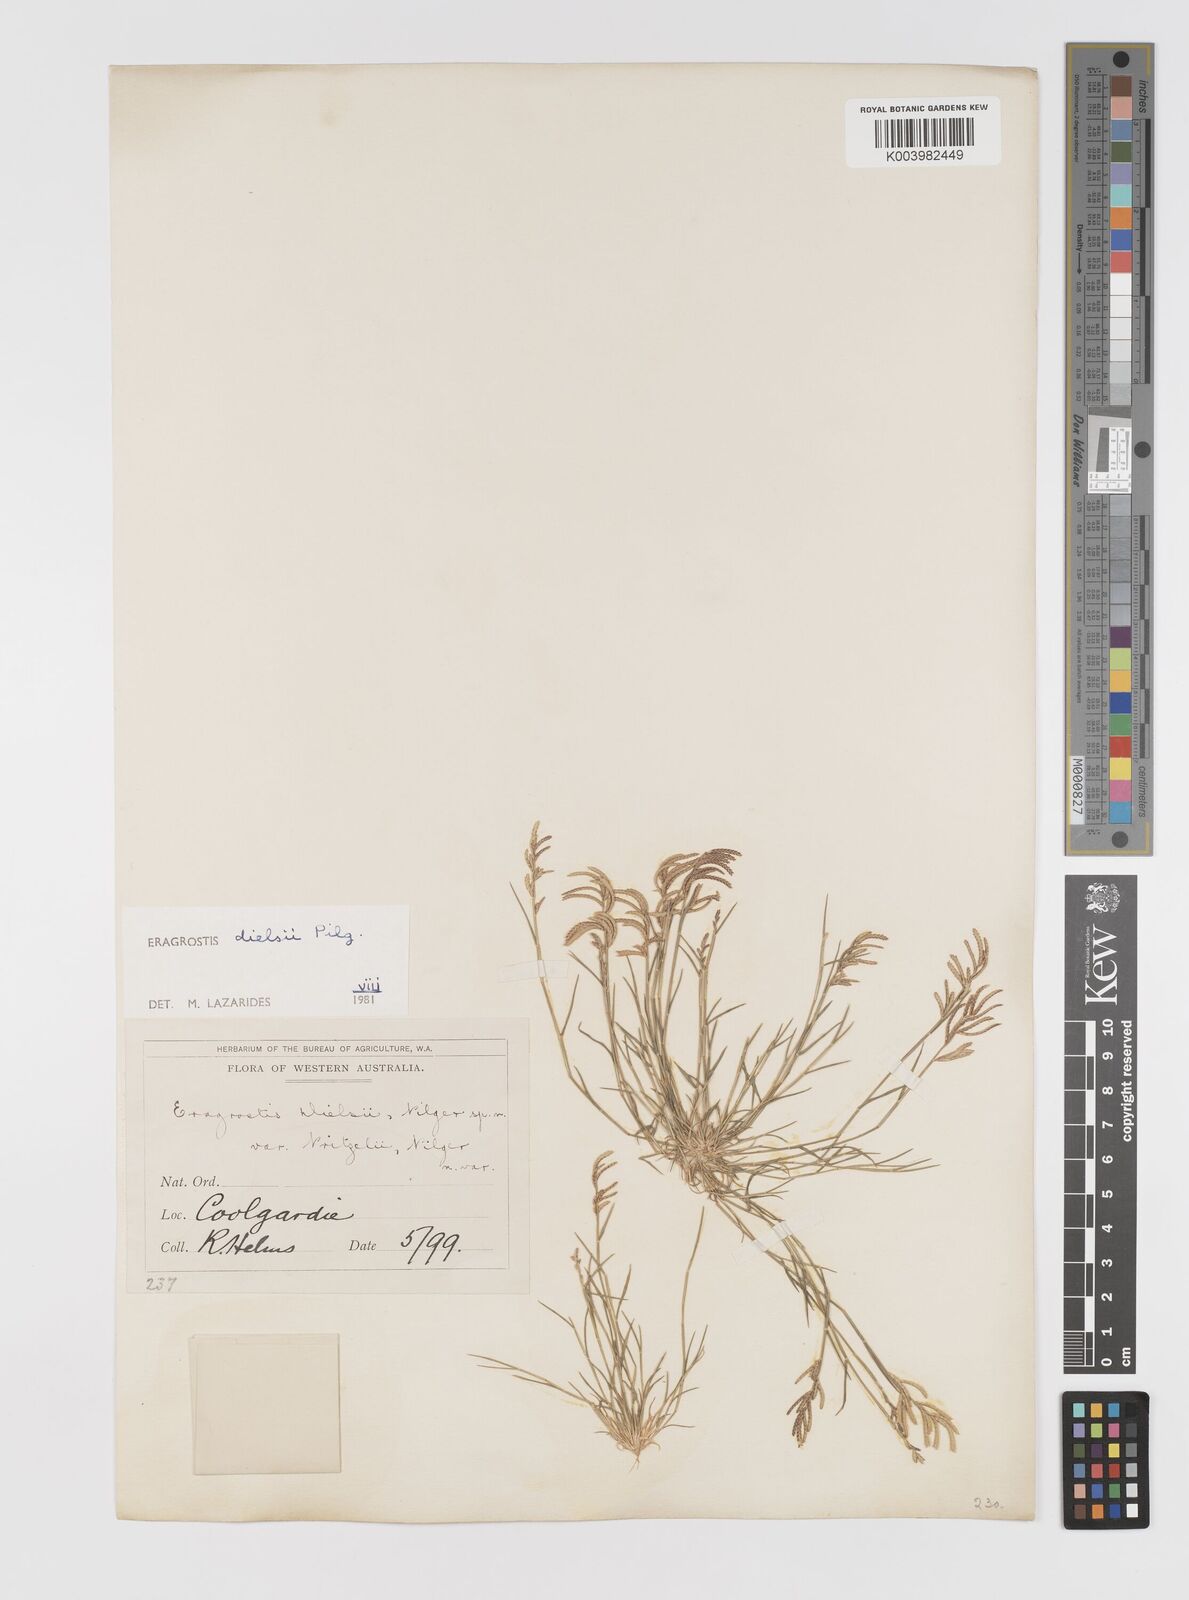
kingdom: Plantae
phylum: Tracheophyta
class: Liliopsida
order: Poales
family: Poaceae
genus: Eragrostis
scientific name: Eragrostis dielsii
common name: Lovegrass
